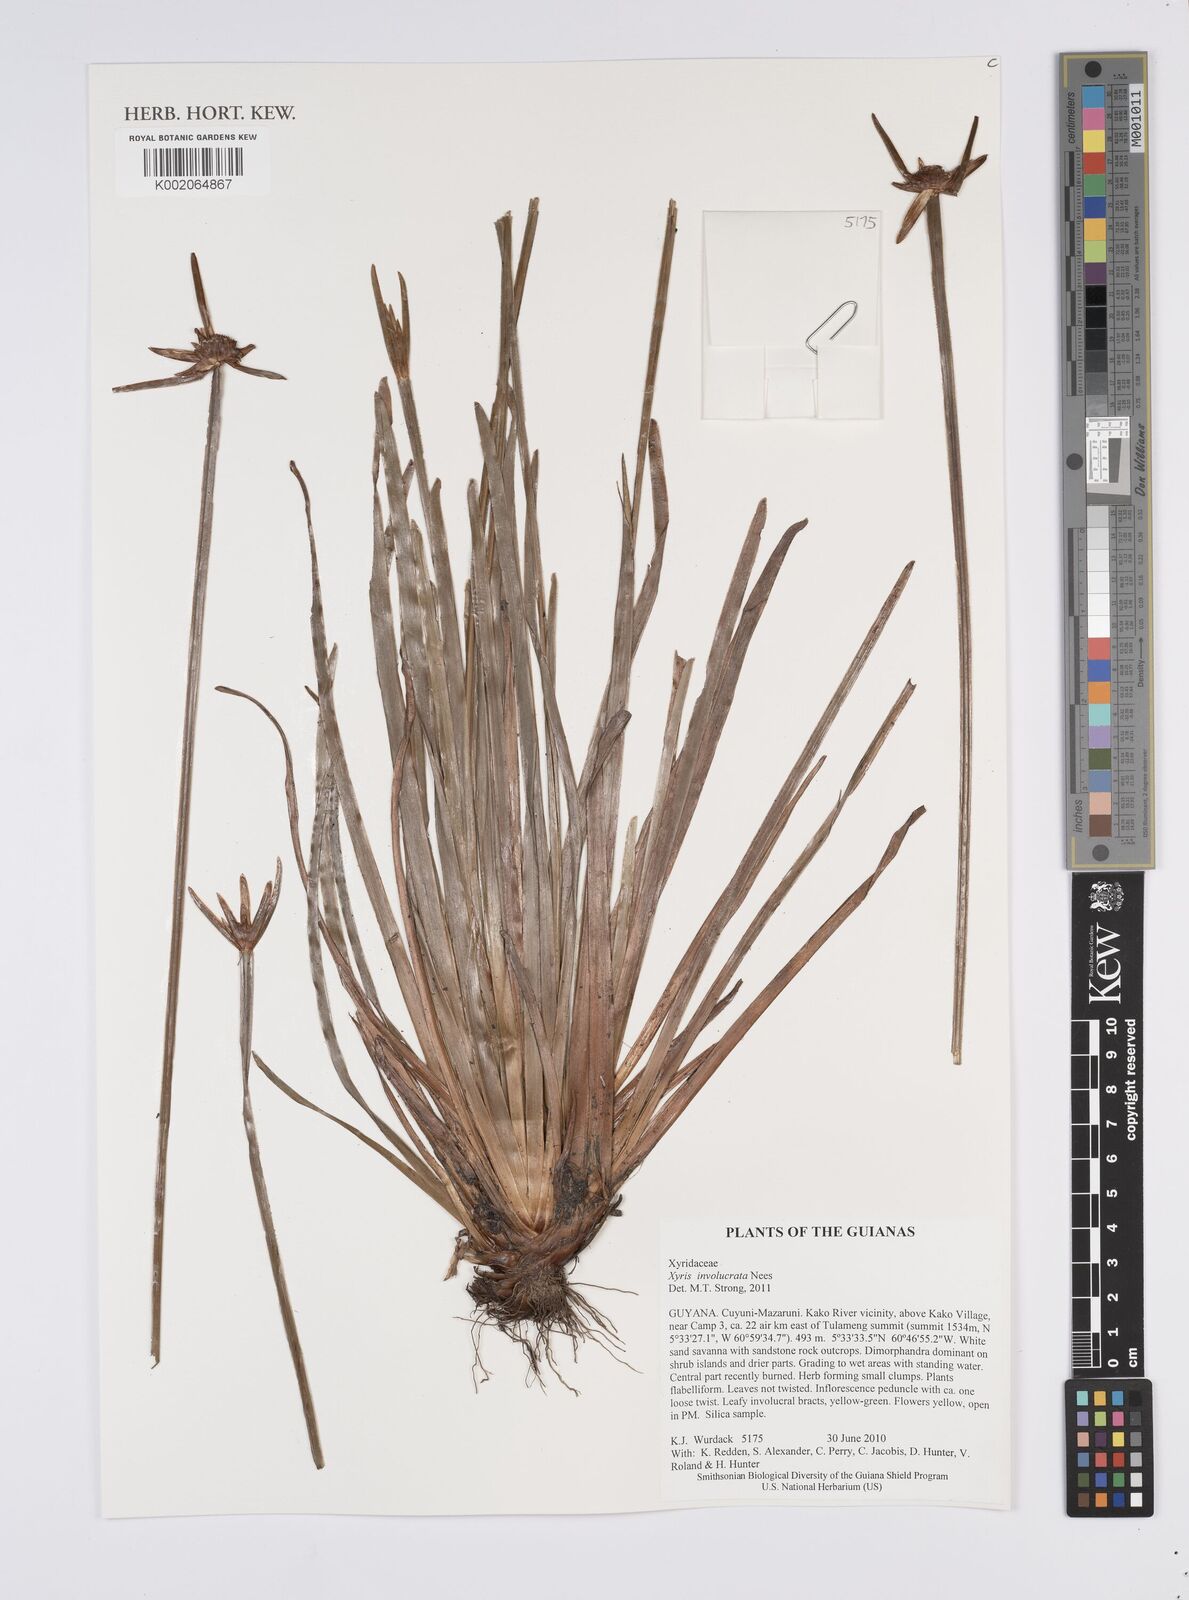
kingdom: Plantae
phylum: Tracheophyta
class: Liliopsida
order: Poales
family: Xyridaceae
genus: Xyris
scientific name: Xyris involucrata
